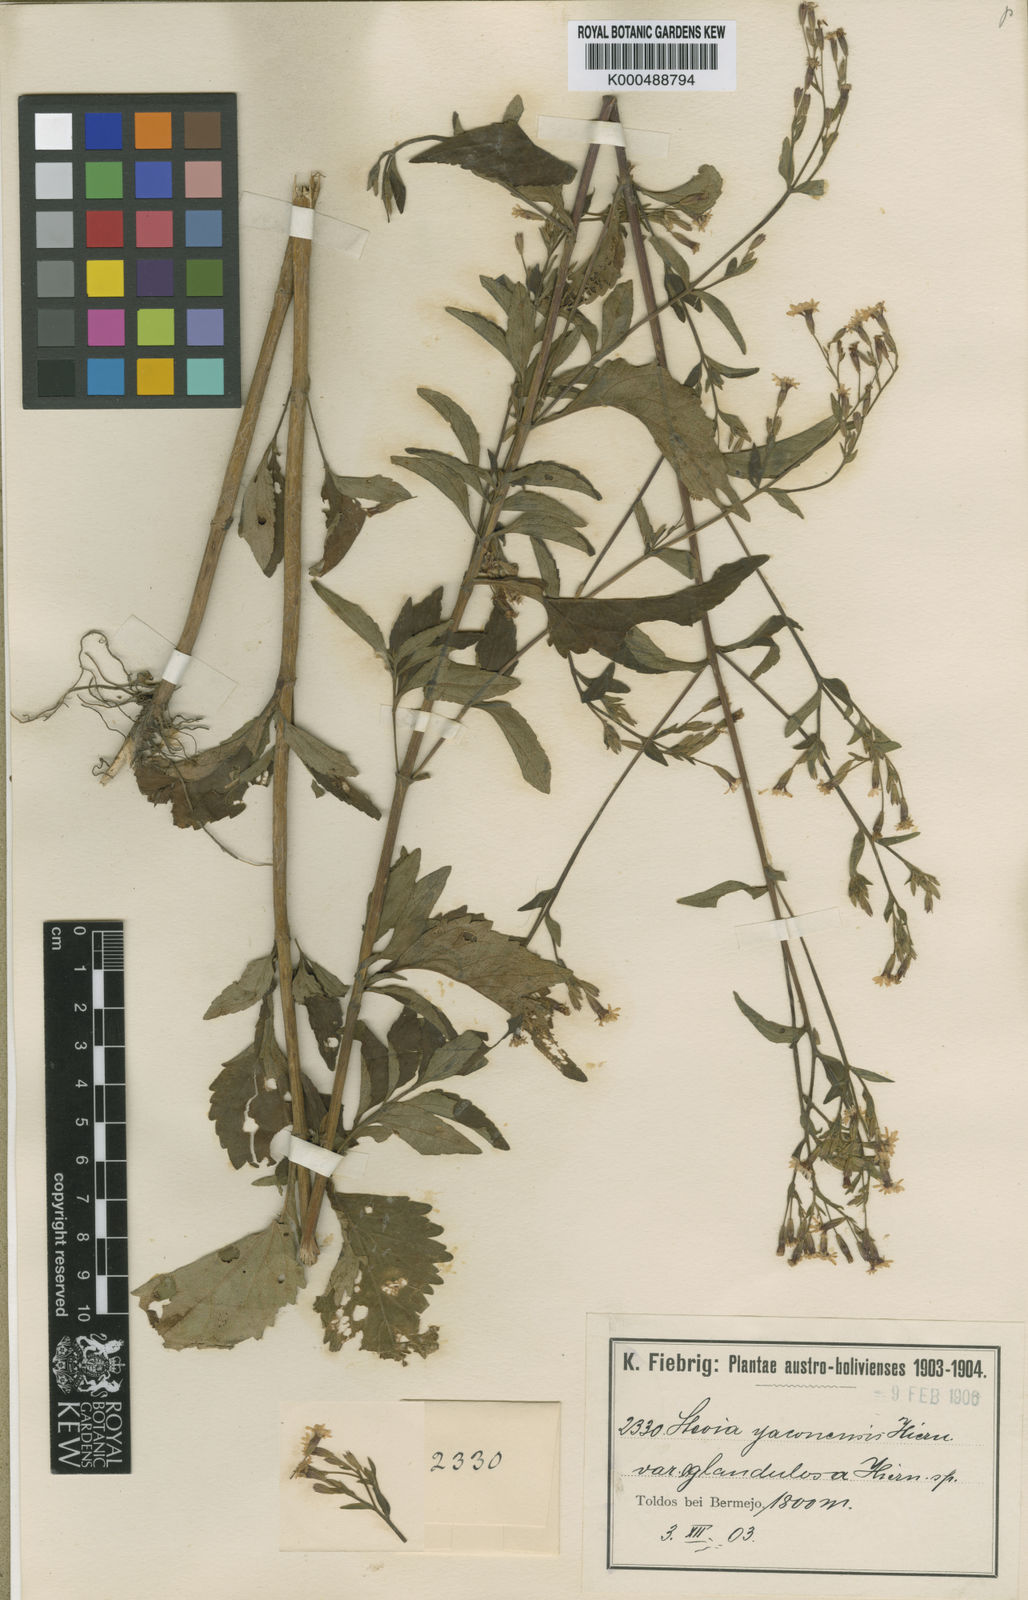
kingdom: Plantae
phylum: Tracheophyta
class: Magnoliopsida
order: Asterales
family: Asteraceae
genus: Stevia
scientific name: Stevia yaconensis
